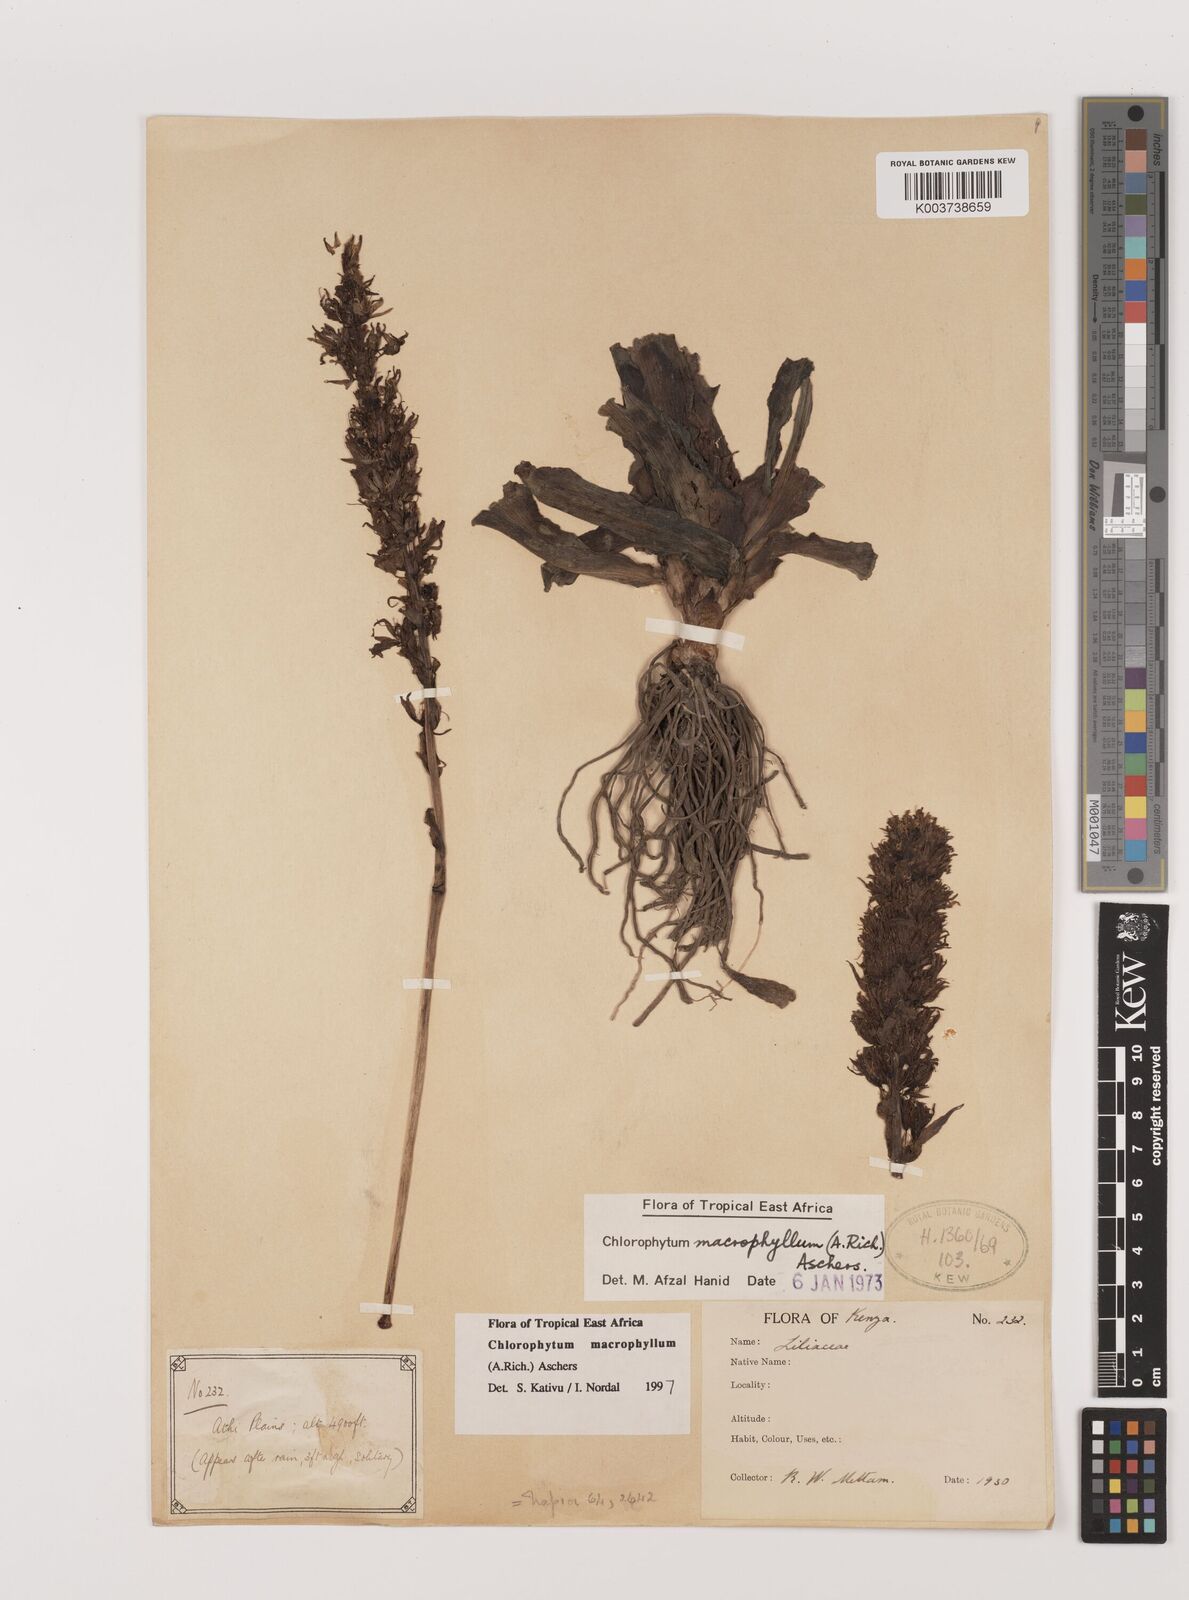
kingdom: Plantae
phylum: Tracheophyta
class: Liliopsida
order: Asparagales
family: Asparagaceae
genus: Chlorophytum
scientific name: Chlorophytum macrophyllum
